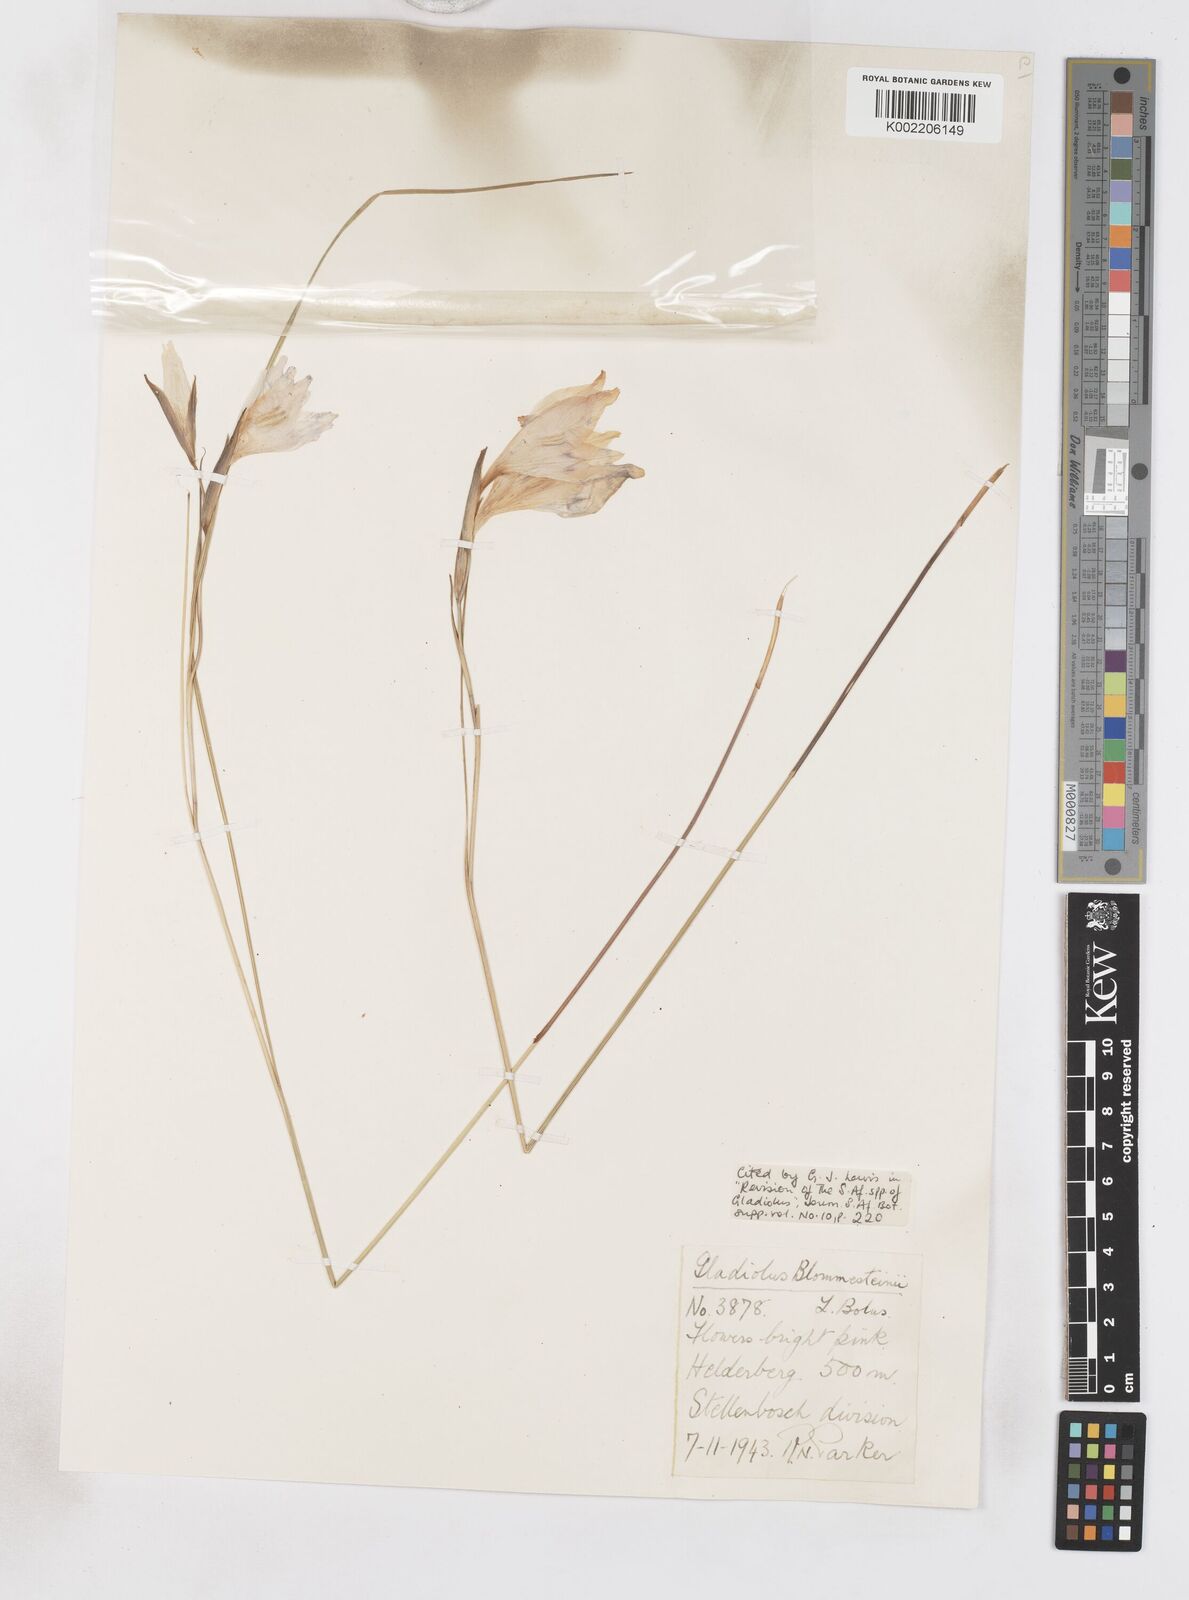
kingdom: Plantae
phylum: Tracheophyta
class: Liliopsida
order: Asparagales
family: Iridaceae
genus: Gladiolus
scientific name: Gladiolus virgatus
